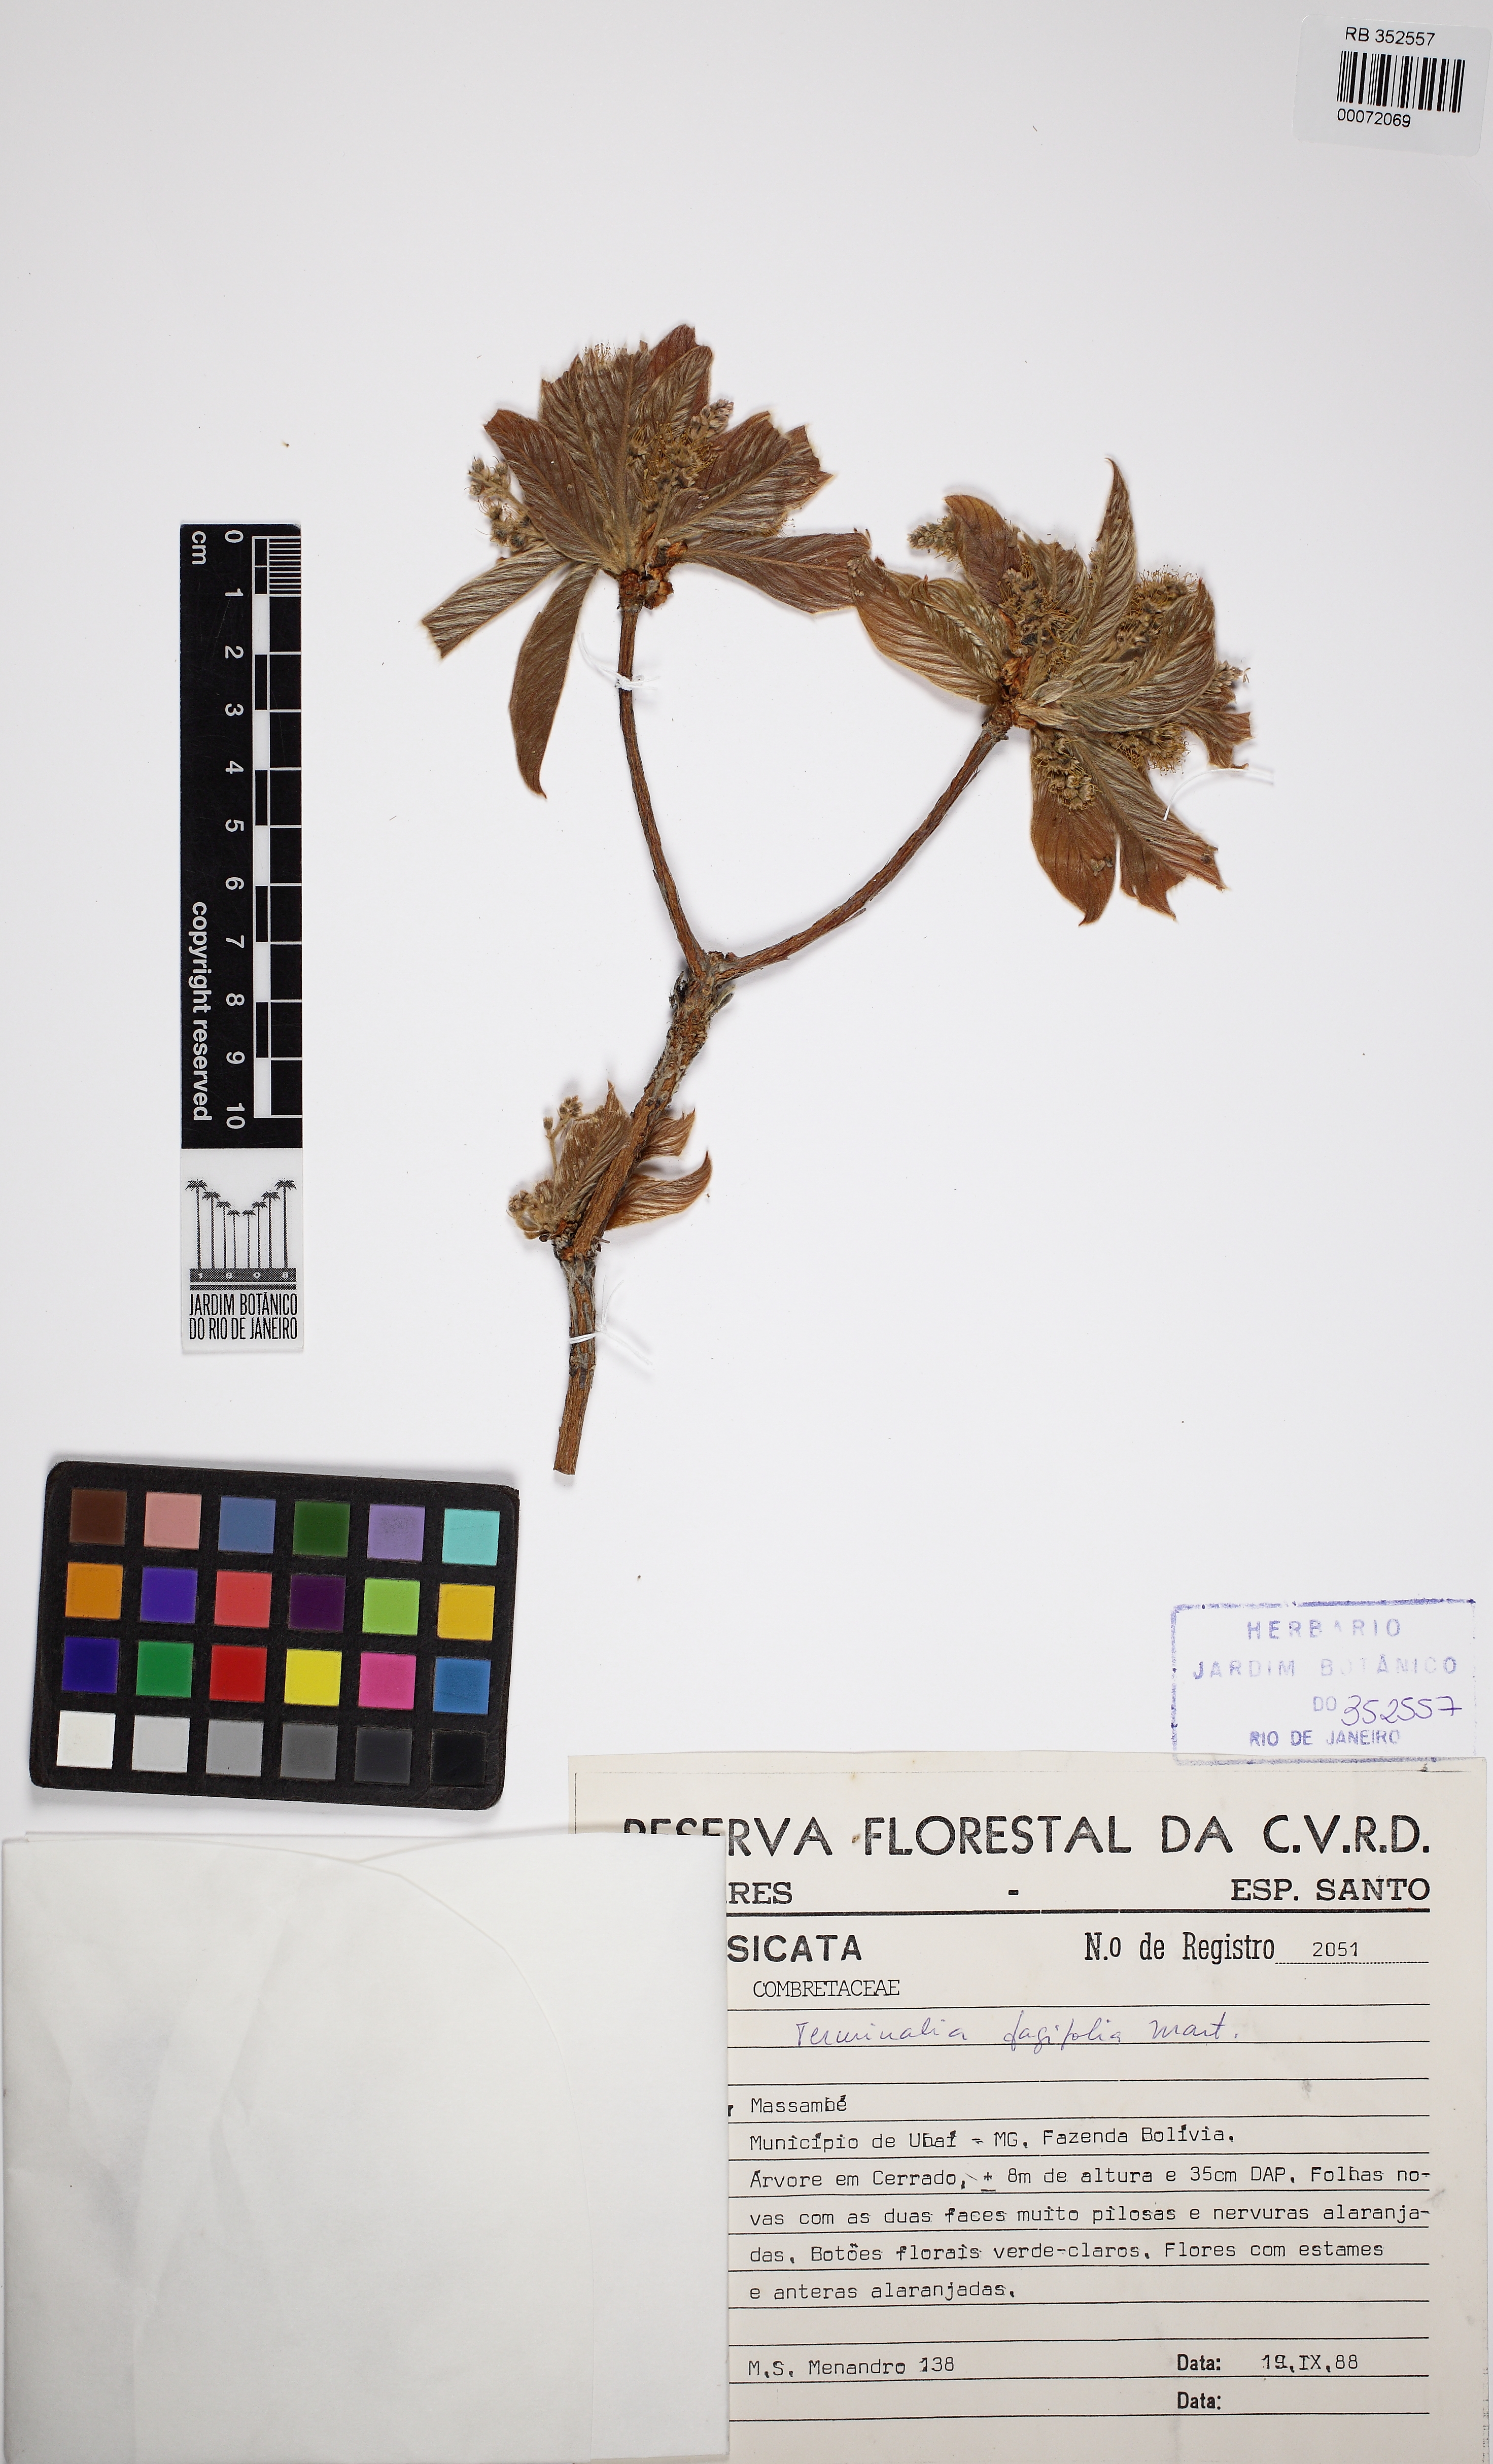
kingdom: Plantae
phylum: Tracheophyta
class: Magnoliopsida
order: Myrtales
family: Combretaceae
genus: Terminalia
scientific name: Terminalia fagifolia
